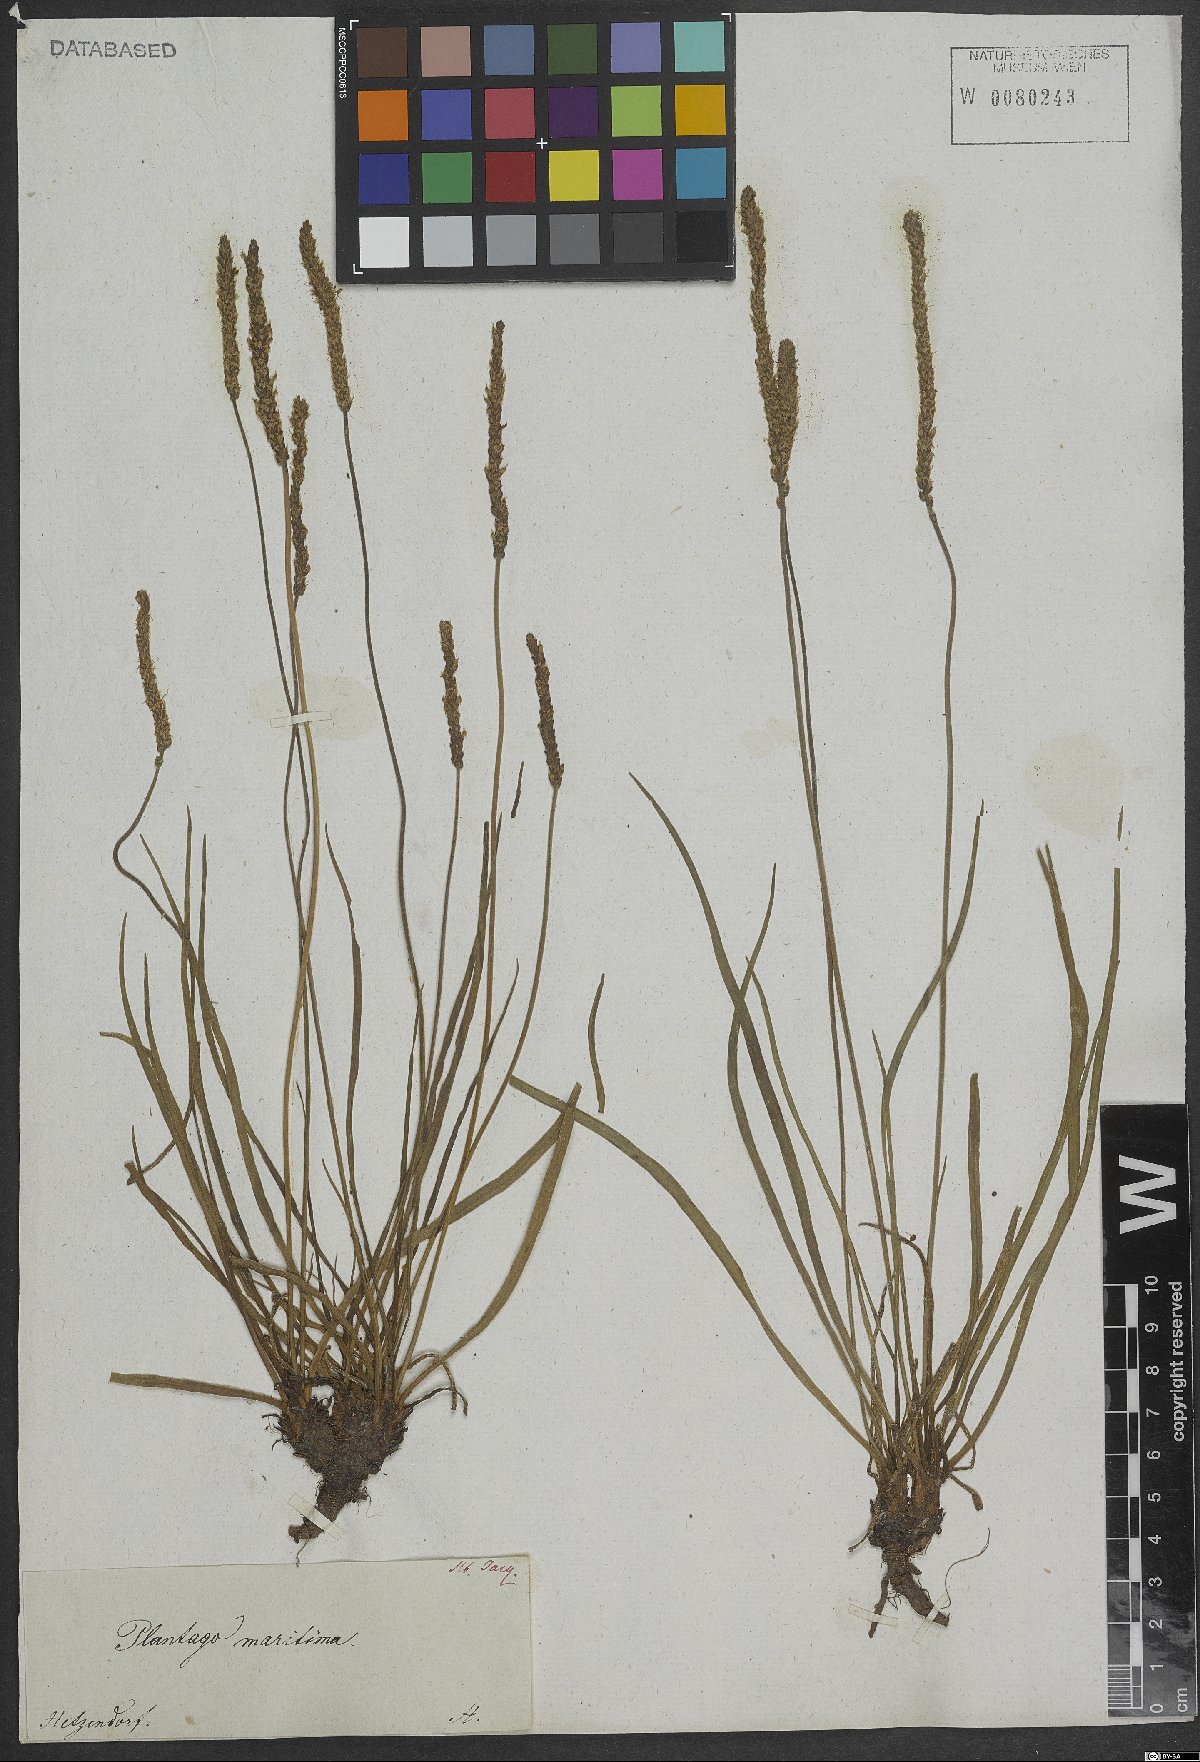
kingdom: Plantae
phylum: Tracheophyta
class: Magnoliopsida
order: Lamiales
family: Plantaginaceae
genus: Plantago
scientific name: Plantago maritima
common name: Sea plantain
